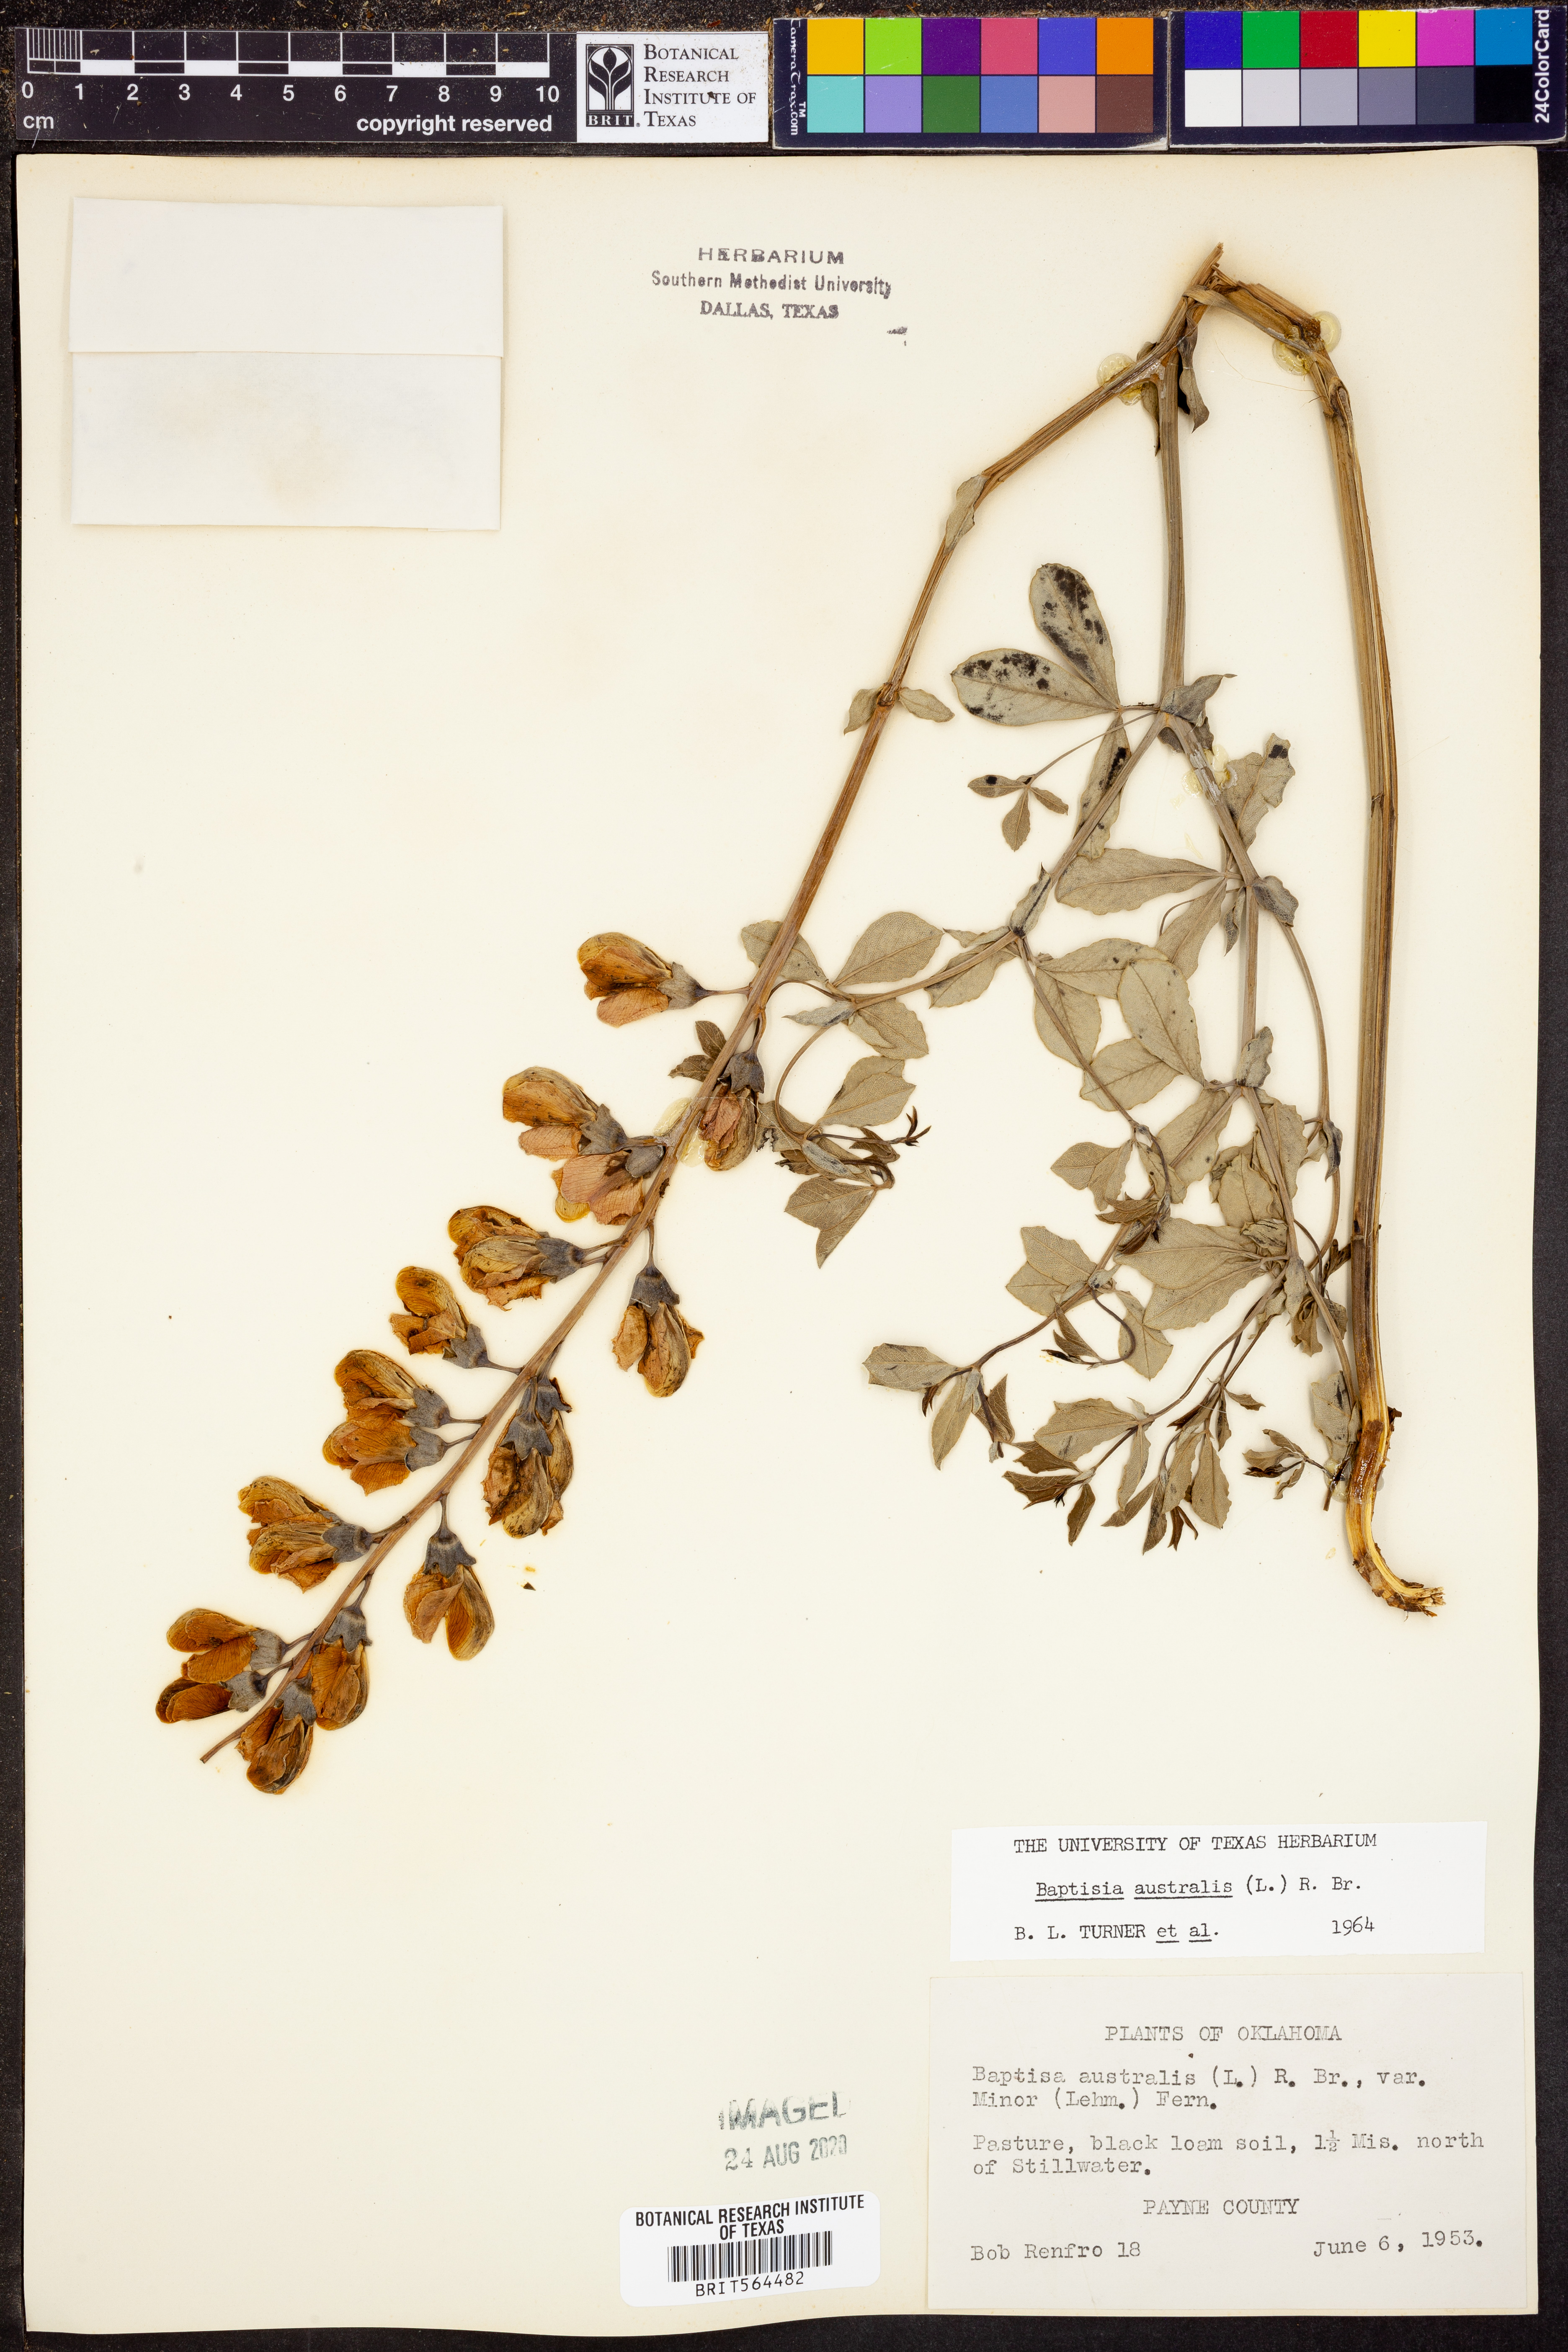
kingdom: Plantae
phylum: Tracheophyta
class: Magnoliopsida
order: Fabales
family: Fabaceae
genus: Baptisia
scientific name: Baptisia australis
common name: Blue false indigo
